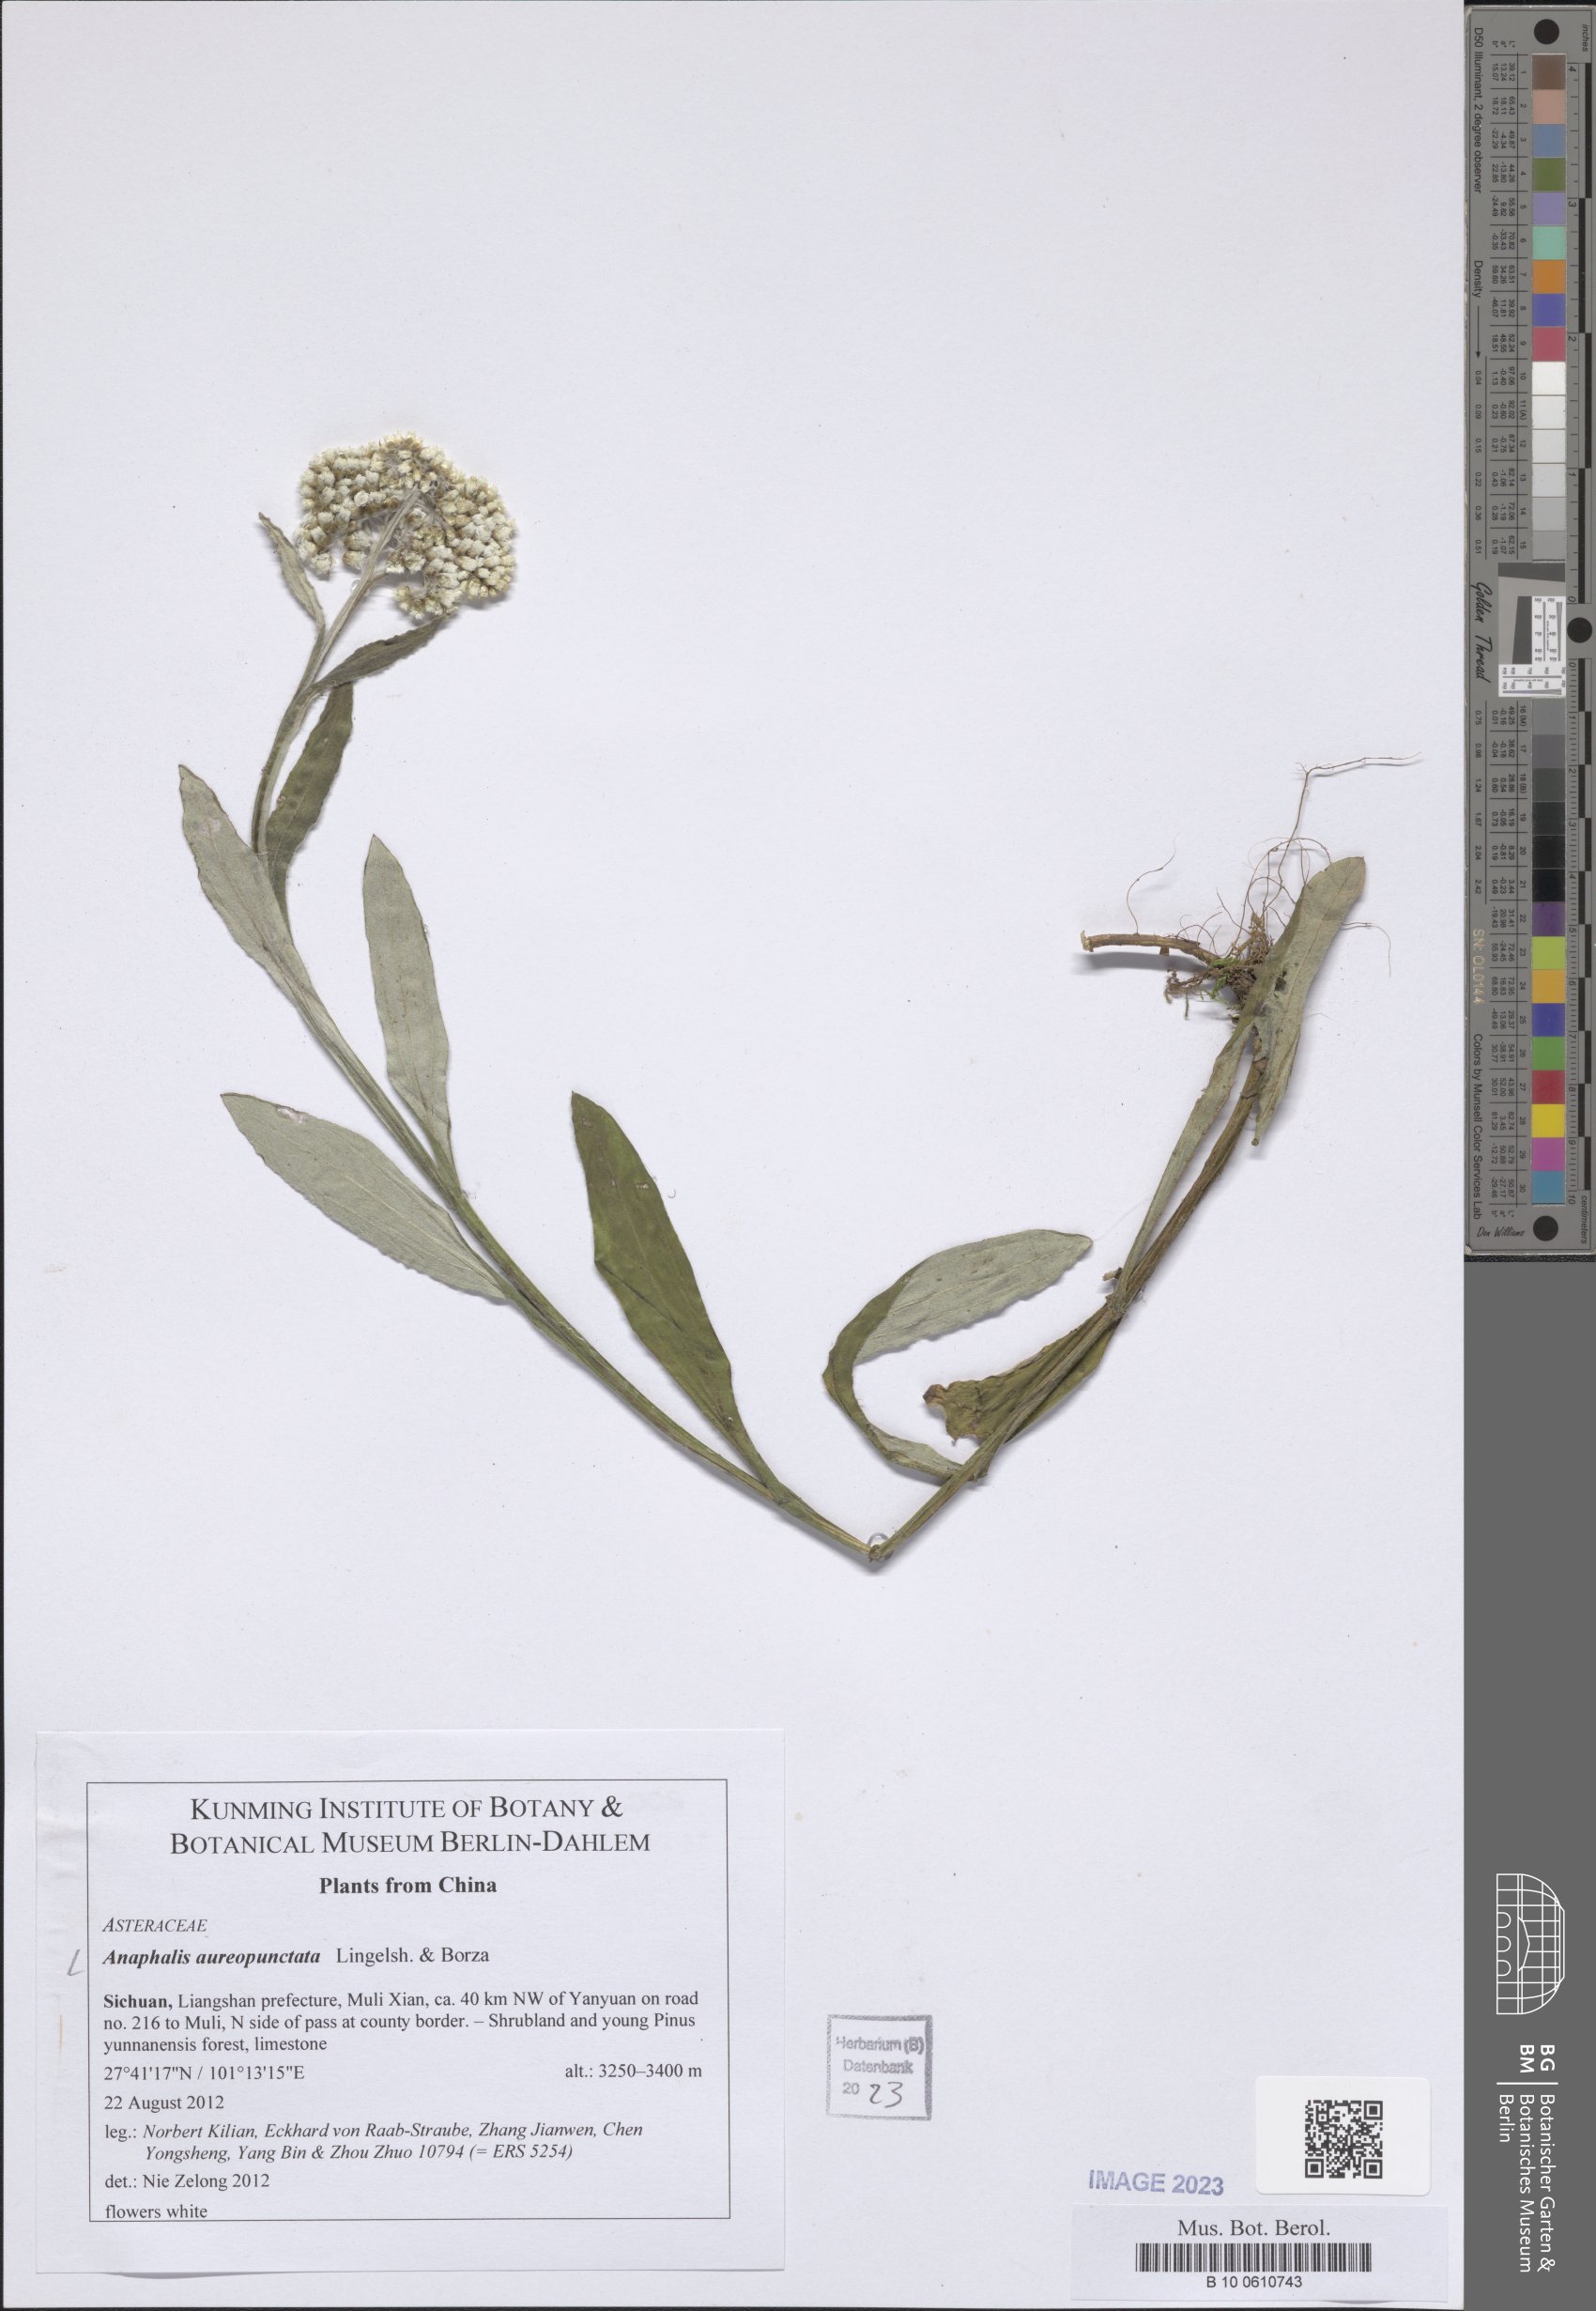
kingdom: Plantae
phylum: Tracheophyta
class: Magnoliopsida
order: Asterales
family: Asteraceae
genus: Anaphalis
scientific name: Anaphalis aureopunctata
